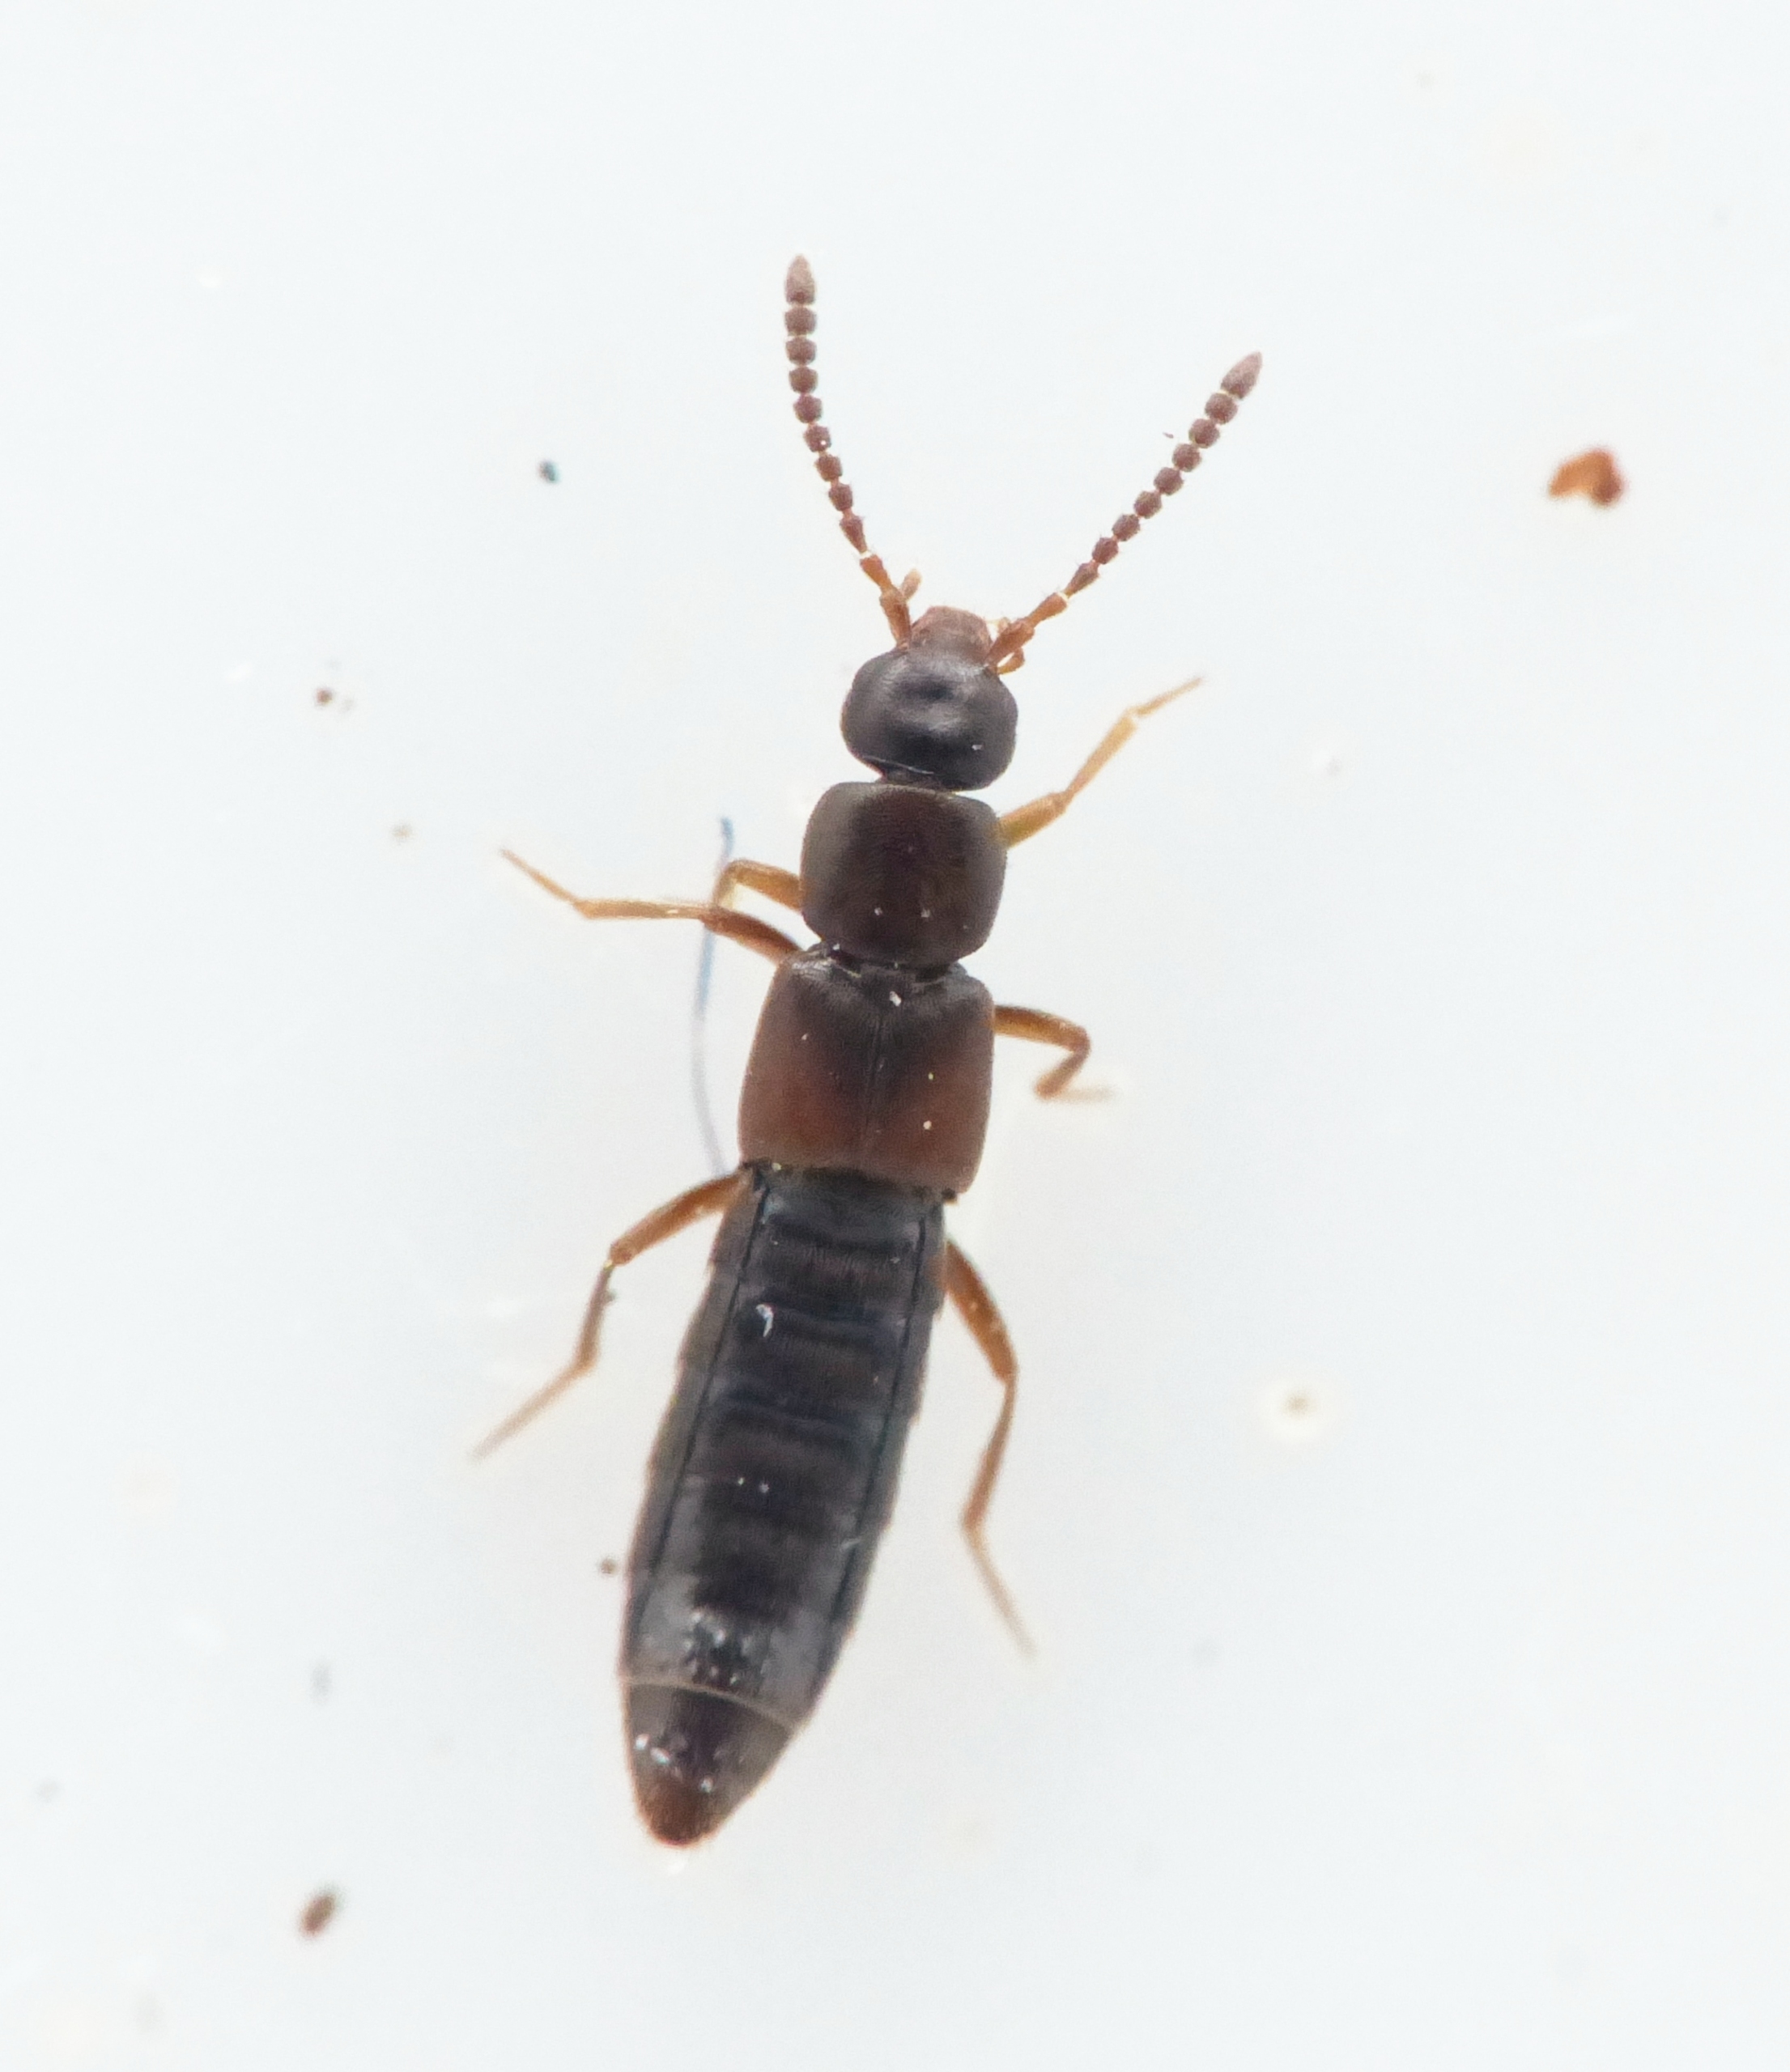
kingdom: Animalia
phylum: Arthropoda
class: Insecta
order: Coleoptera
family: Staphylinidae
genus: Dinaraea
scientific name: Dinaraea linearis
